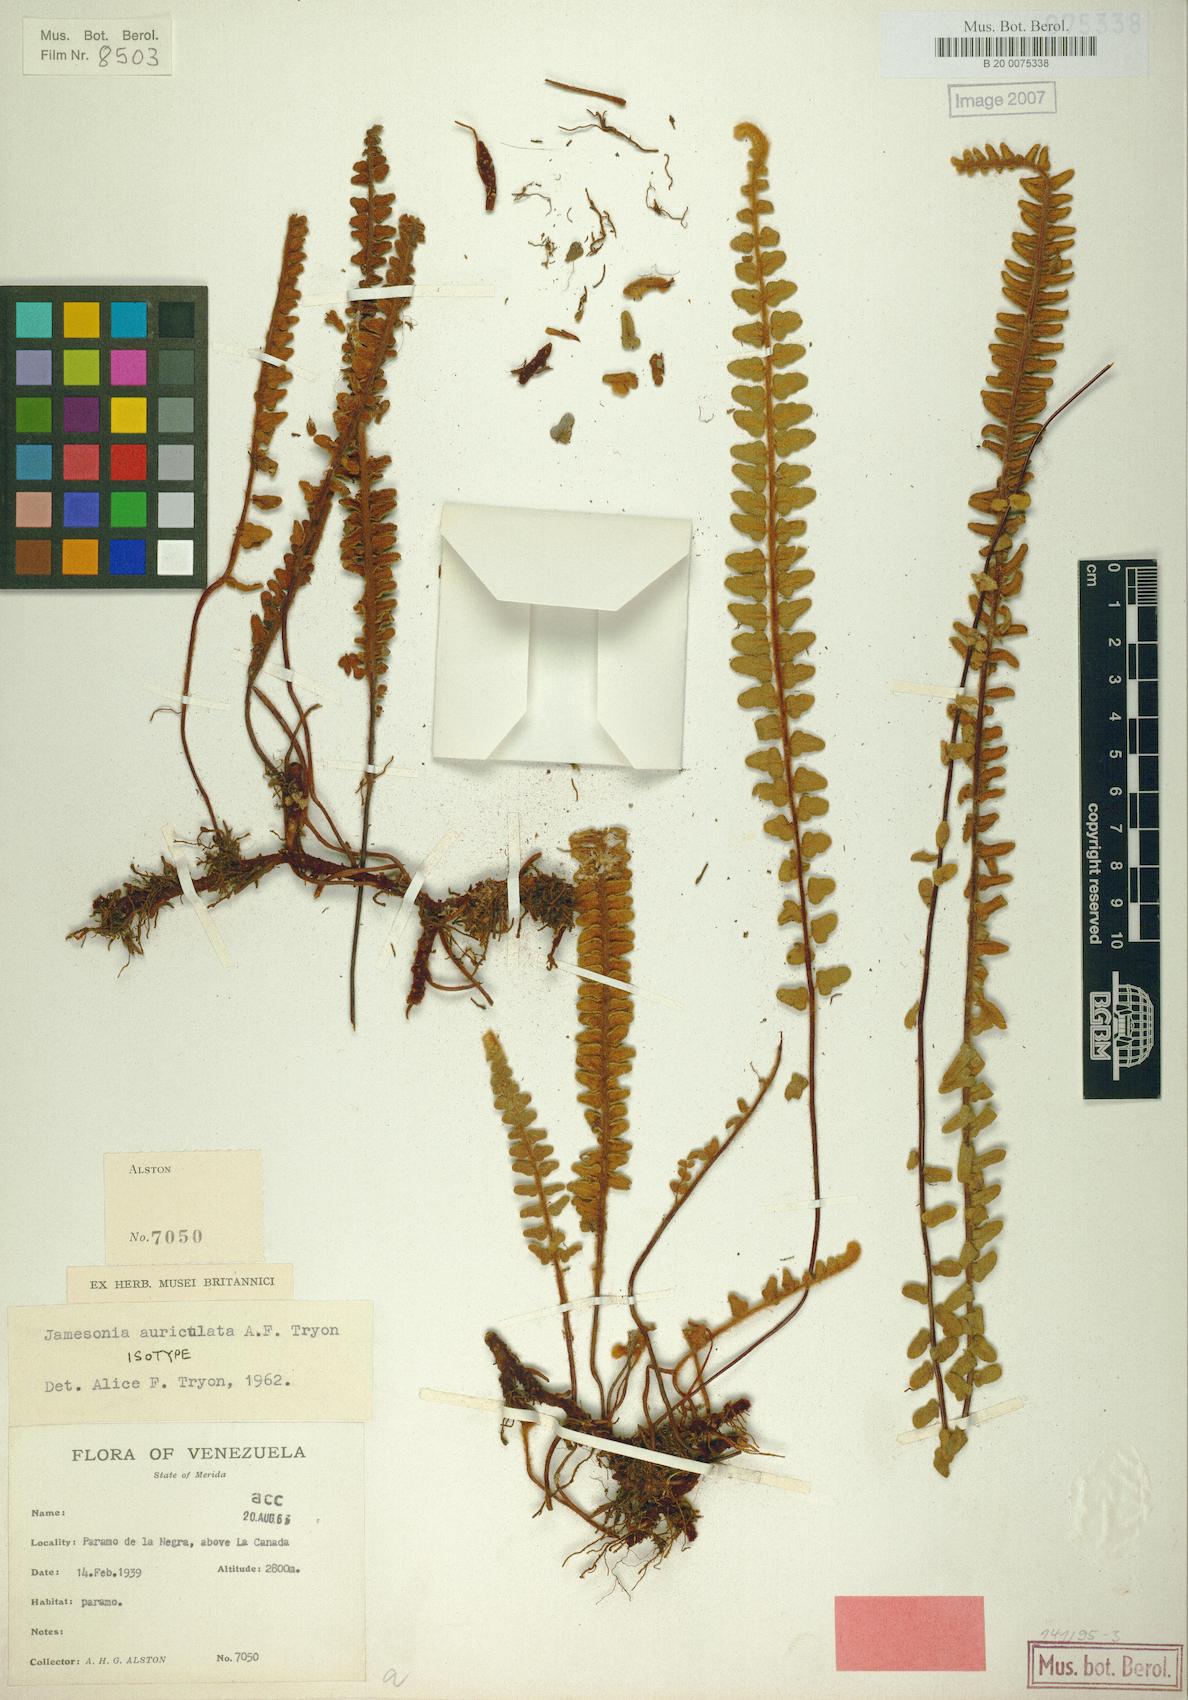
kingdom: Plantae
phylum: Tracheophyta
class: Polypodiopsida
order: Polypodiales
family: Pteridaceae
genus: Jamesonia
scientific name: Jamesonia auriculata
